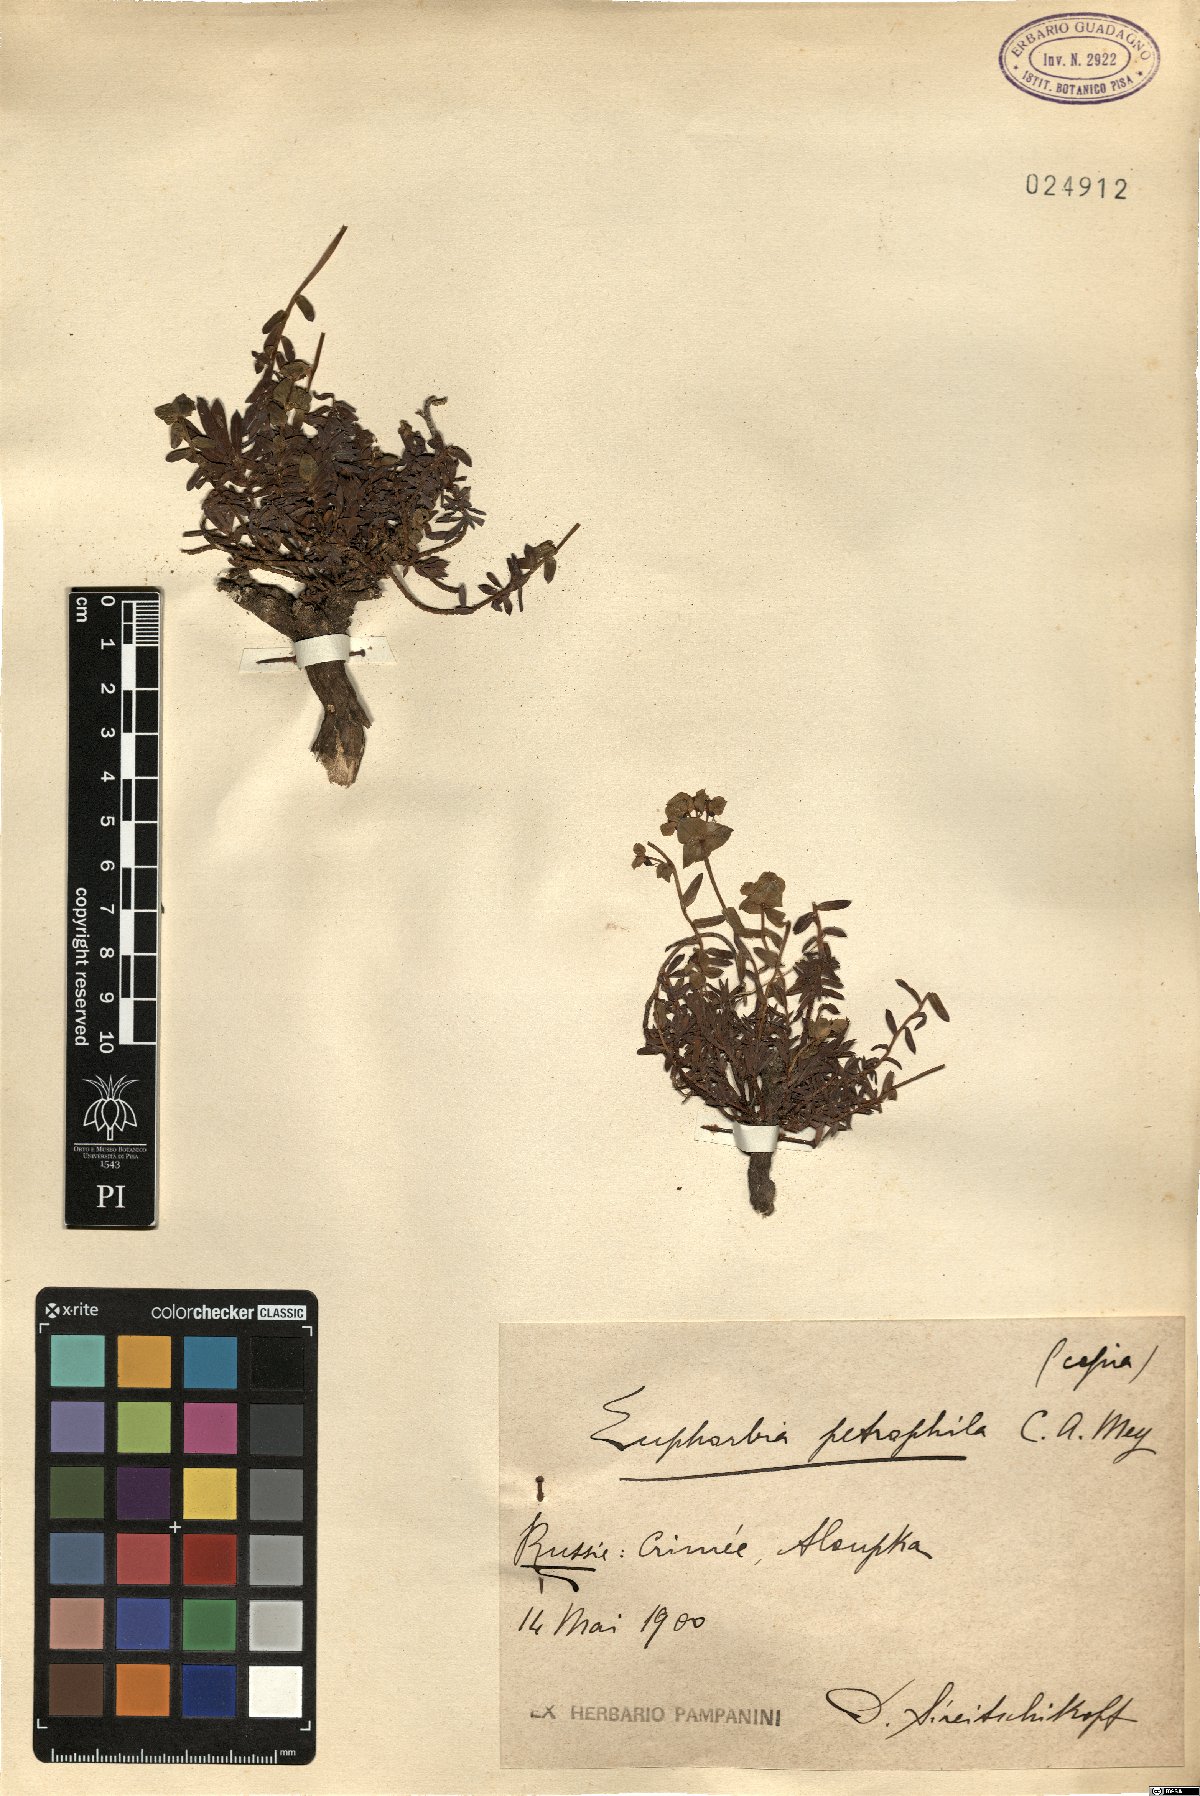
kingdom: Plantae
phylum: Tracheophyta
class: Magnoliopsida
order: Malpighiales
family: Euphorbiaceae
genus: Euphorbia
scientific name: Euphorbia petrophila
